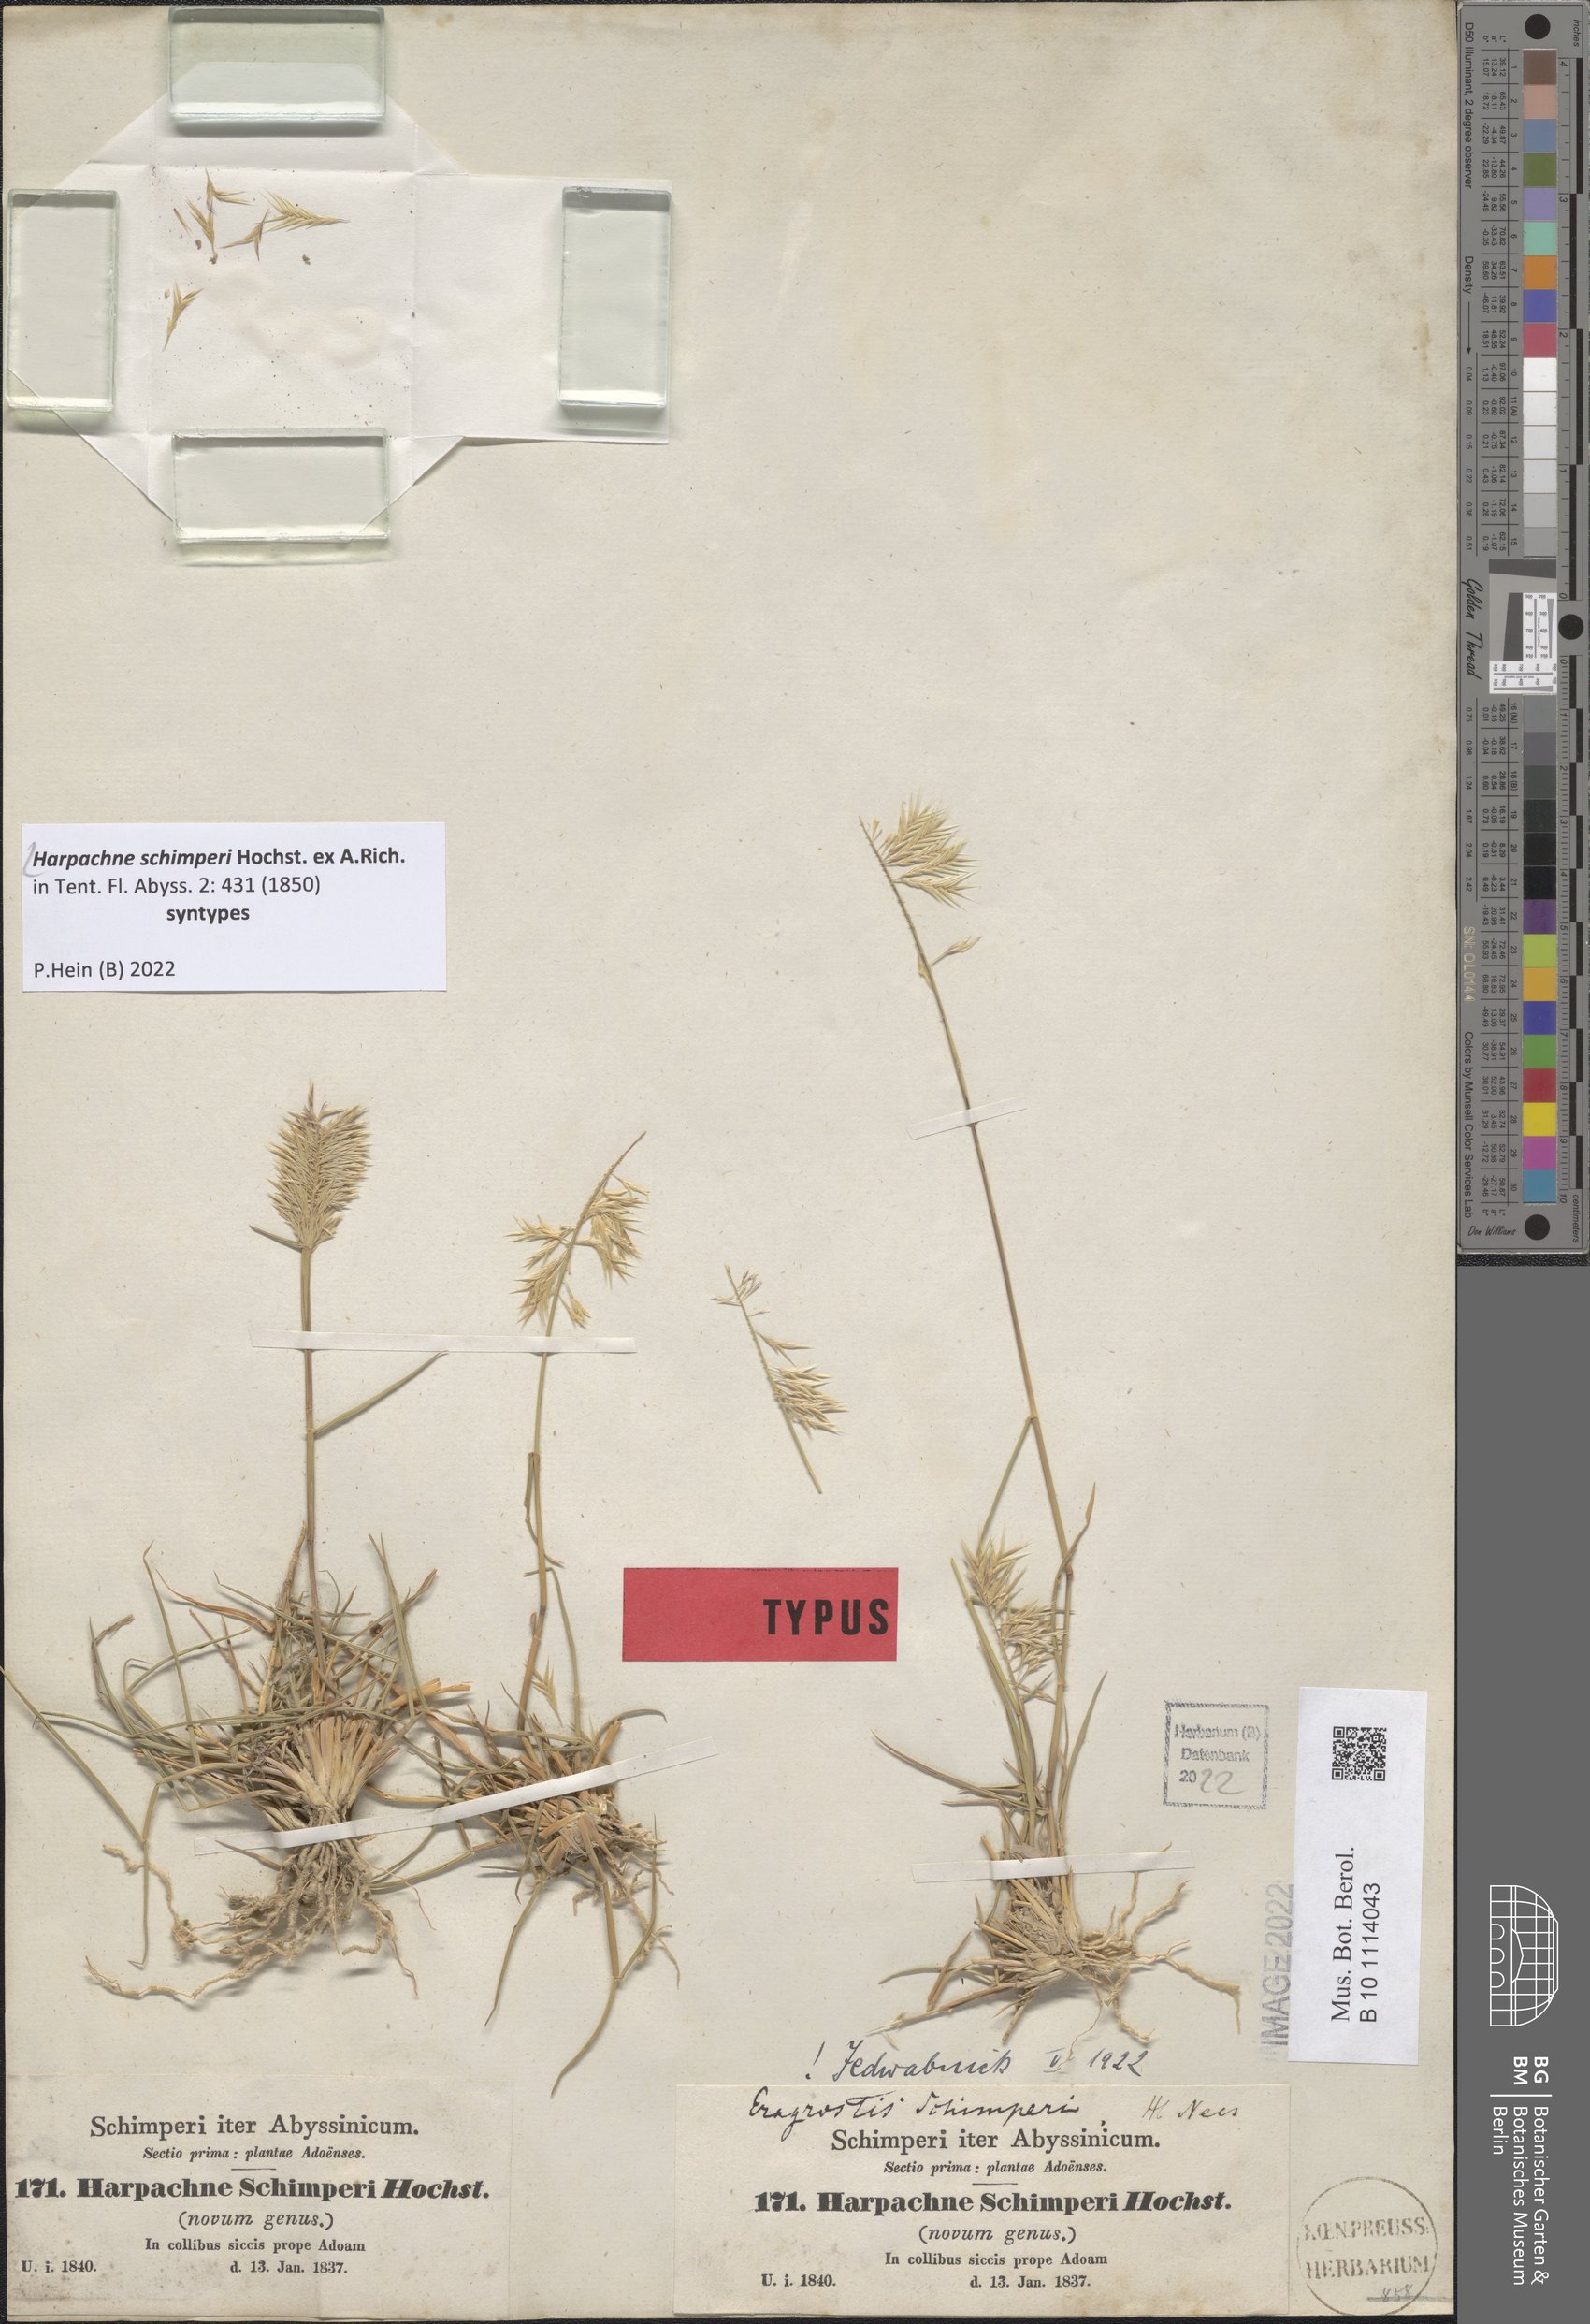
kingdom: Plantae
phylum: Tracheophyta
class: Liliopsida
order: Poales
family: Poaceae
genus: Harpachne
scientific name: Harpachne schimperi
